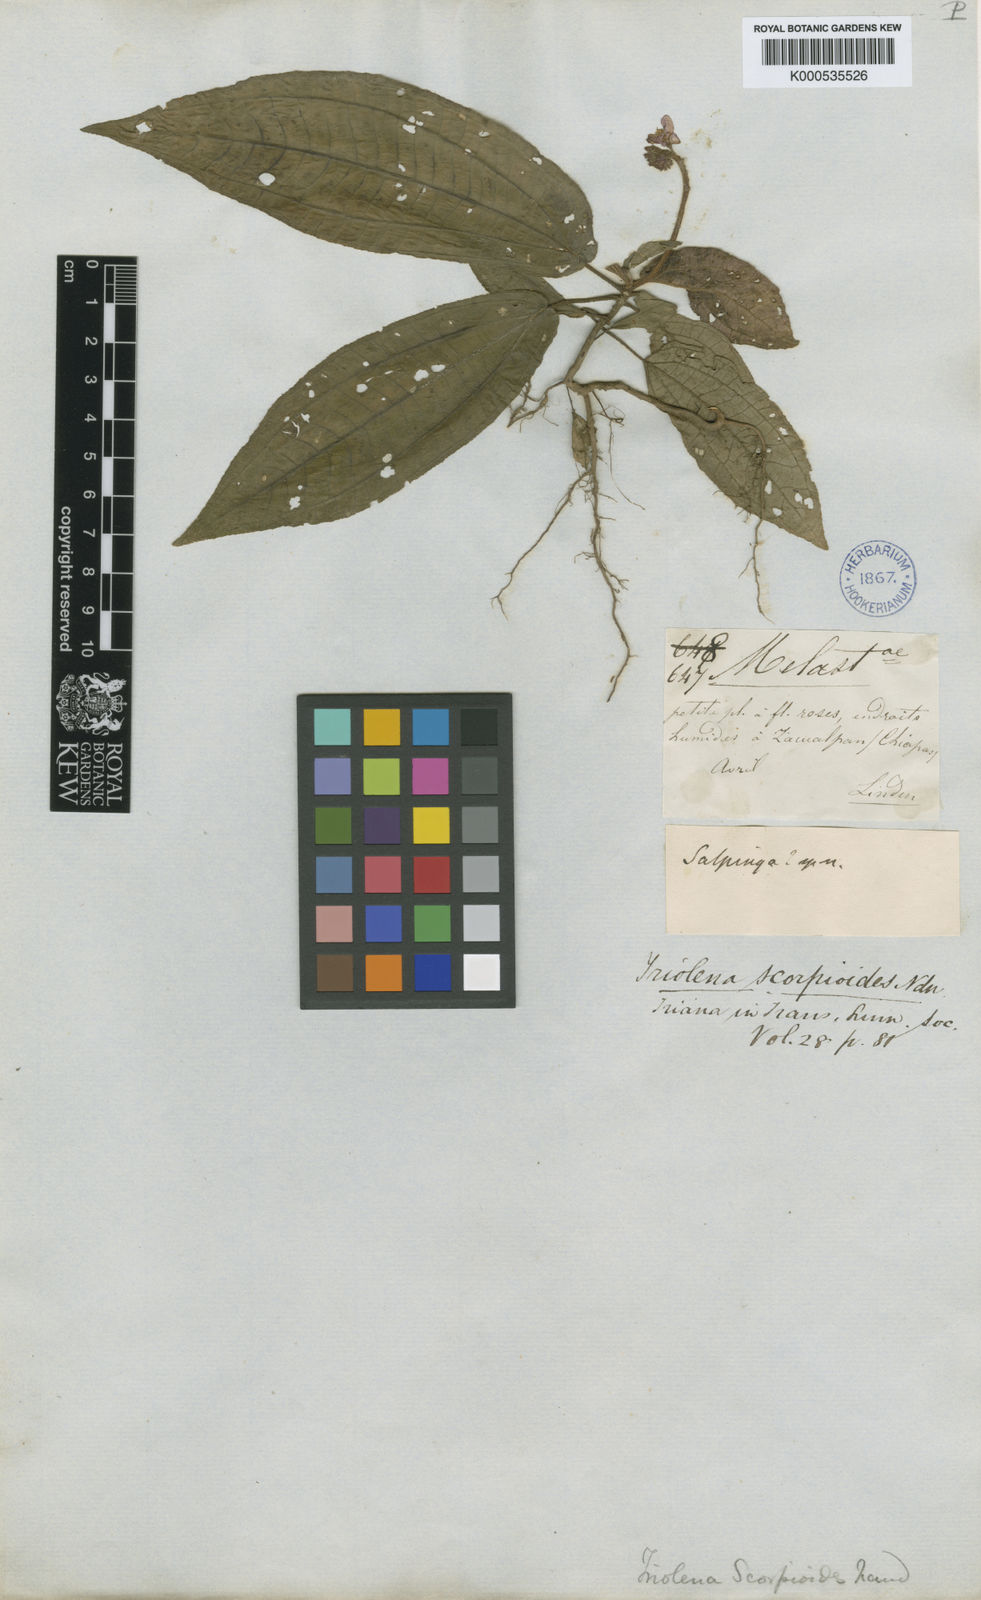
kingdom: Plantae
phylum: Tracheophyta
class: Magnoliopsida
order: Myrtales
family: Melastomataceae
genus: Triolena
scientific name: Triolena scorpioides
